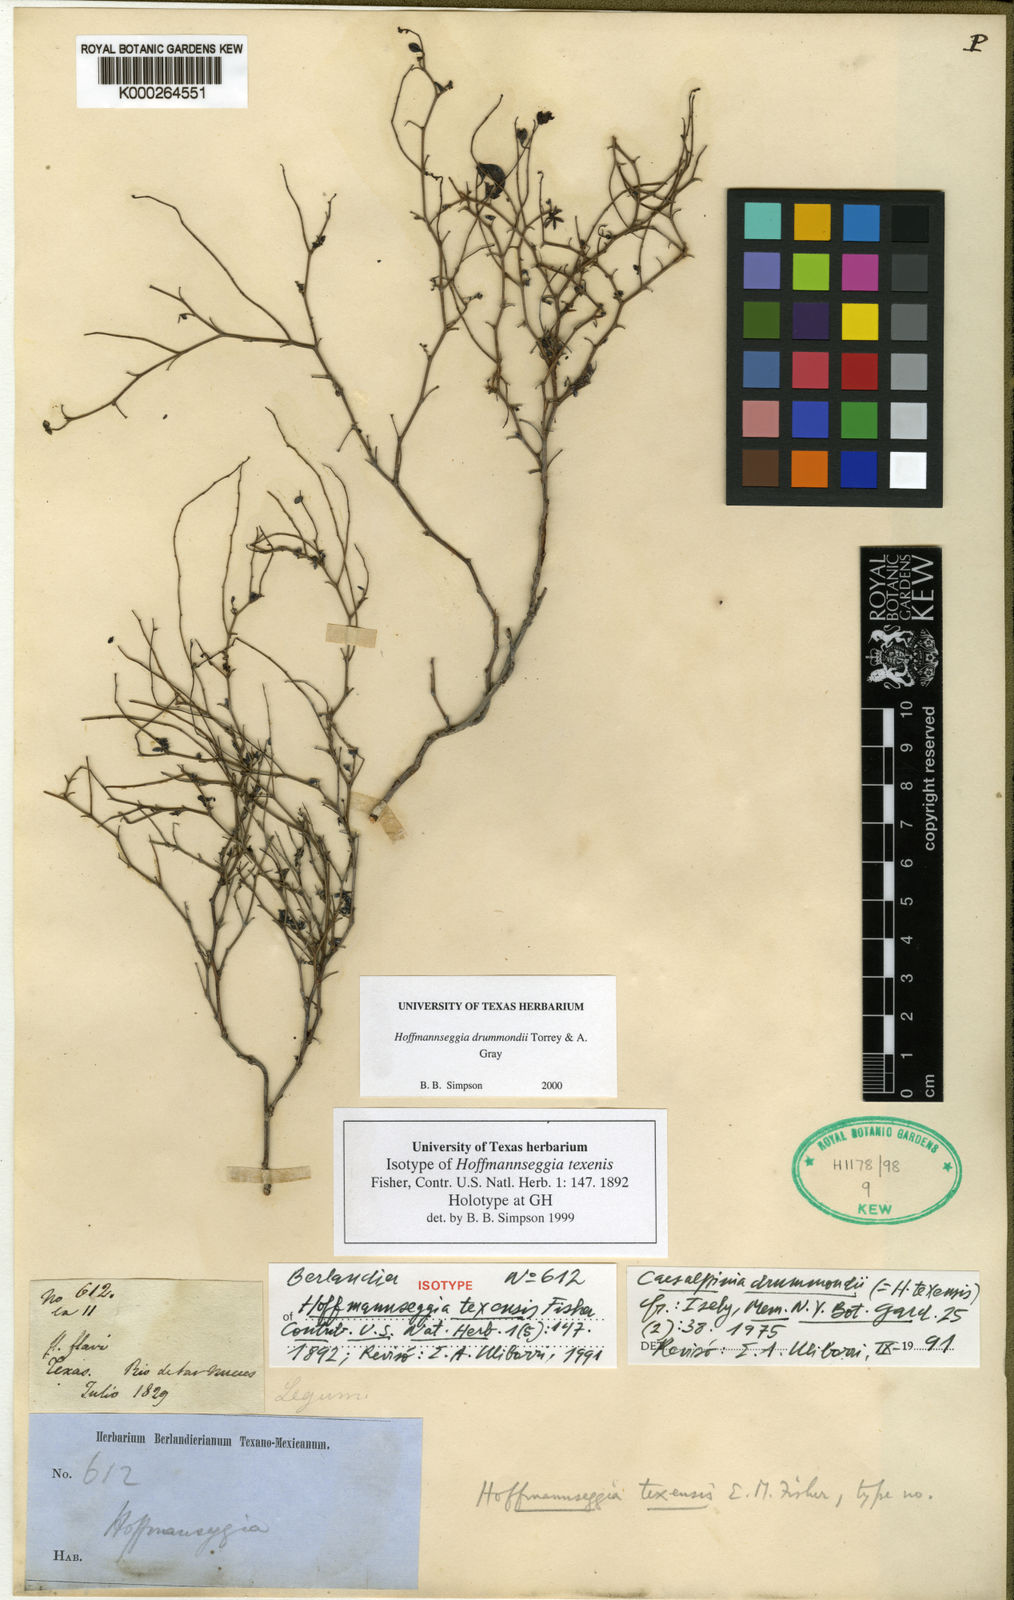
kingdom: Plantae
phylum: Tracheophyta
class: Magnoliopsida
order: Fabales
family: Fabaceae
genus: Hoffmannseggia
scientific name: Hoffmannseggia drummondii
